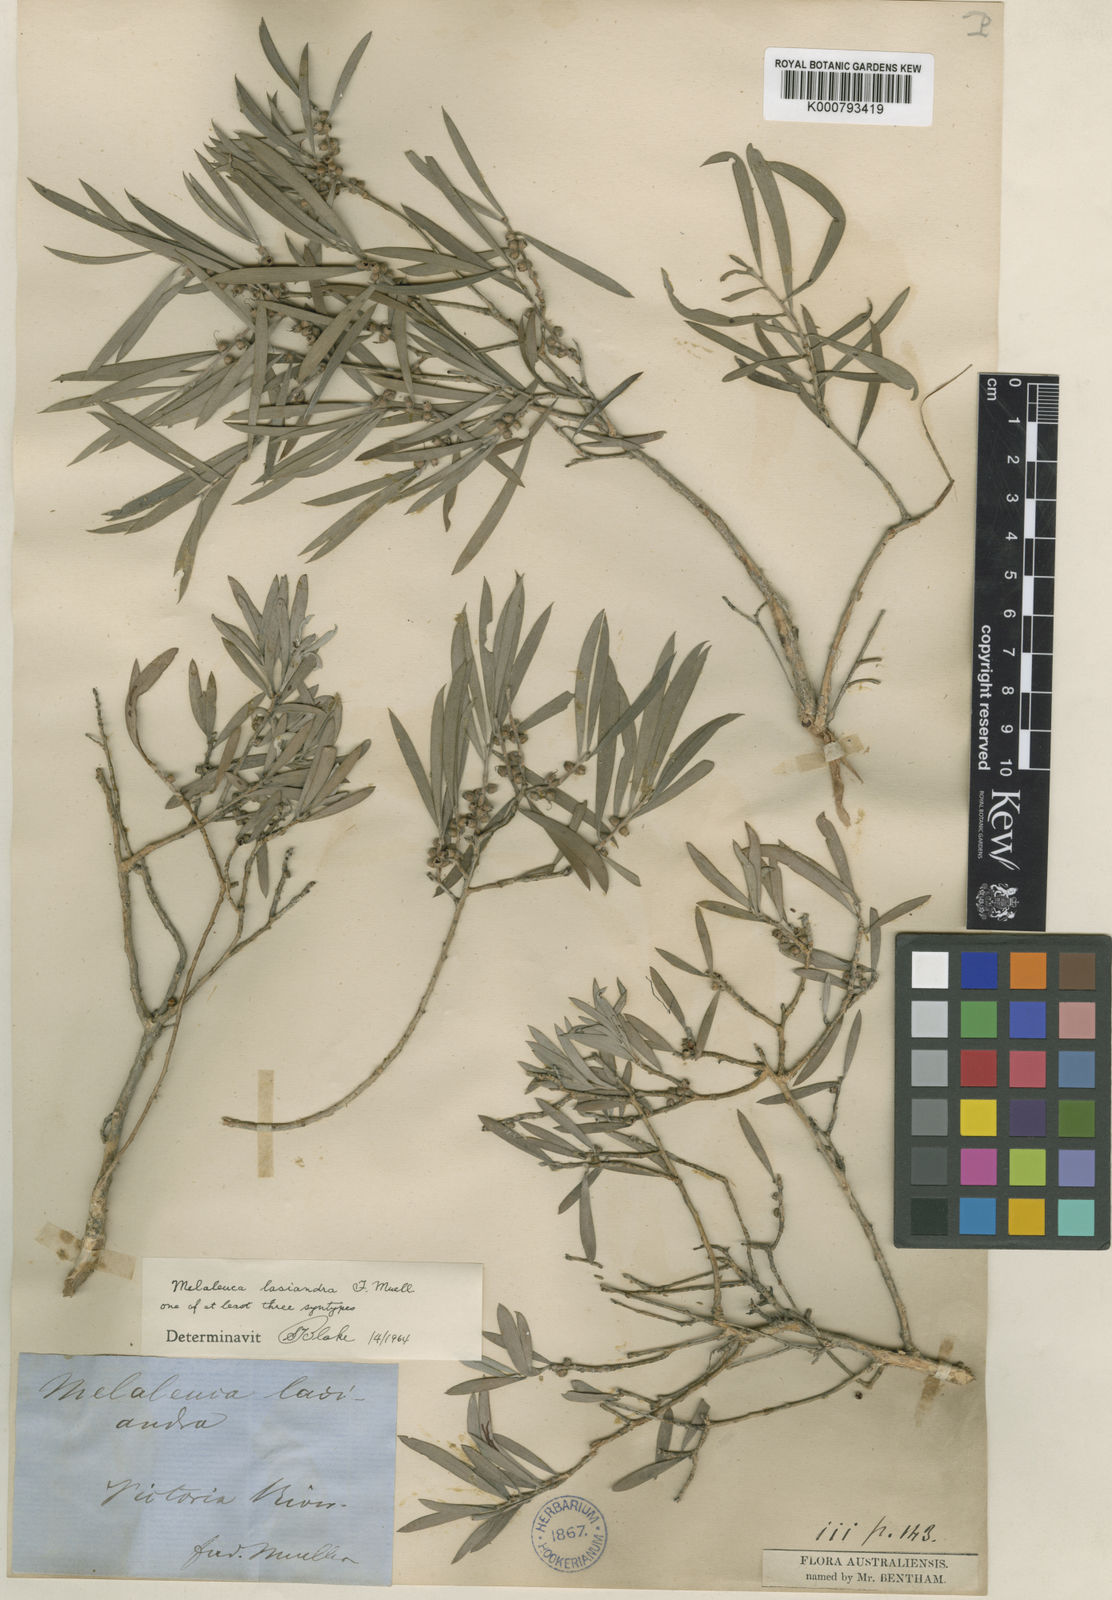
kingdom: Plantae
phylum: Tracheophyta
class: Magnoliopsida
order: Myrtales
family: Myrtaceae
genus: Melaleuca
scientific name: Melaleuca lasiandra
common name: Sandhill tea-tree
